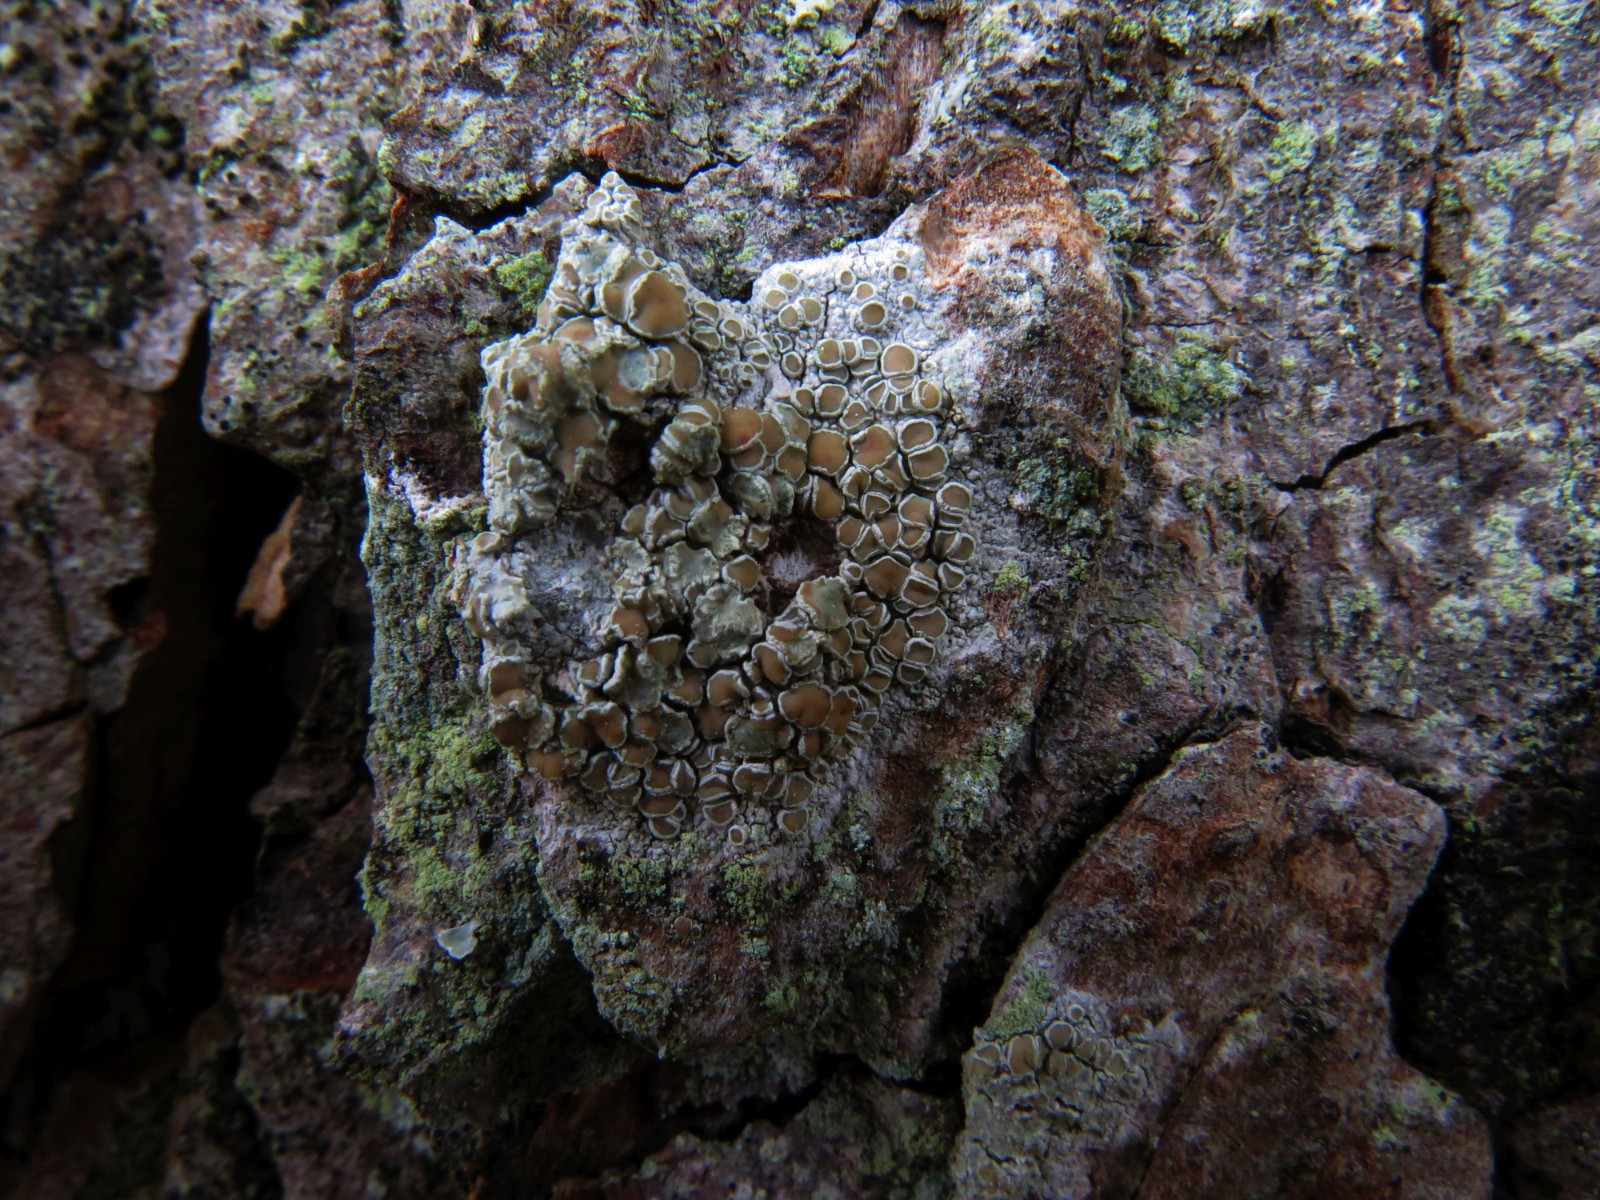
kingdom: Fungi
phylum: Ascomycota
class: Lecanoromycetes
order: Lecanorales
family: Lecanoraceae
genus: Lecanora
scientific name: Lecanora chlarotera
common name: brun kantskivelav
